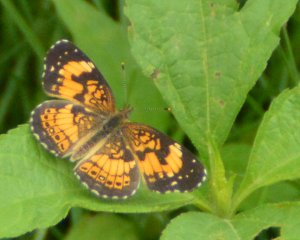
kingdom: Animalia
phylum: Arthropoda
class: Insecta
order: Lepidoptera
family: Nymphalidae
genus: Chlosyne
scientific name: Chlosyne nycteis
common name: Silvery Checkerspot
